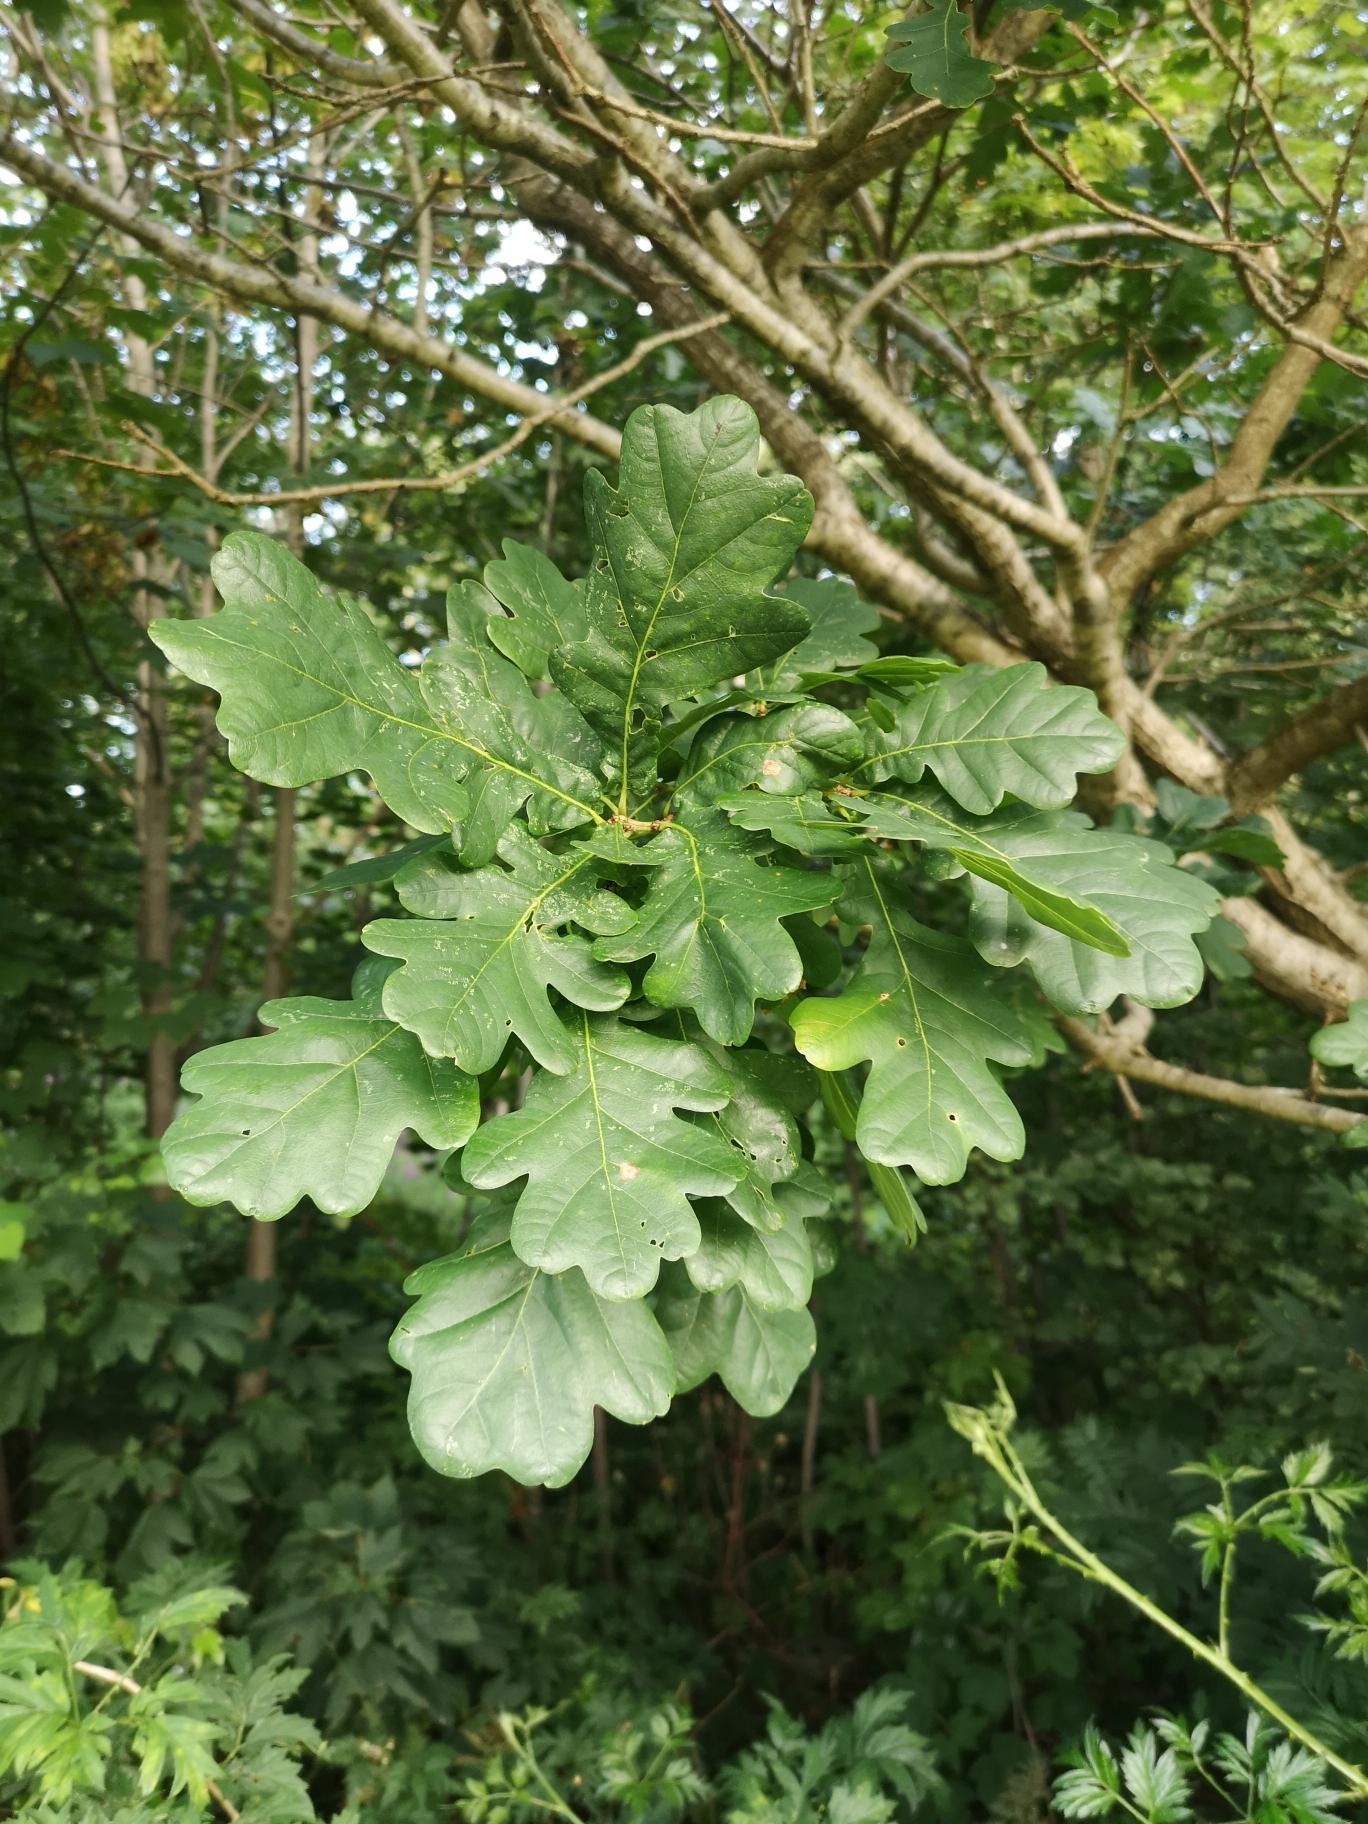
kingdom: Plantae
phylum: Tracheophyta
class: Magnoliopsida
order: Fagales
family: Fagaceae
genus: Quercus
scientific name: Quercus robur
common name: Stilk-eg/almindelig eg
